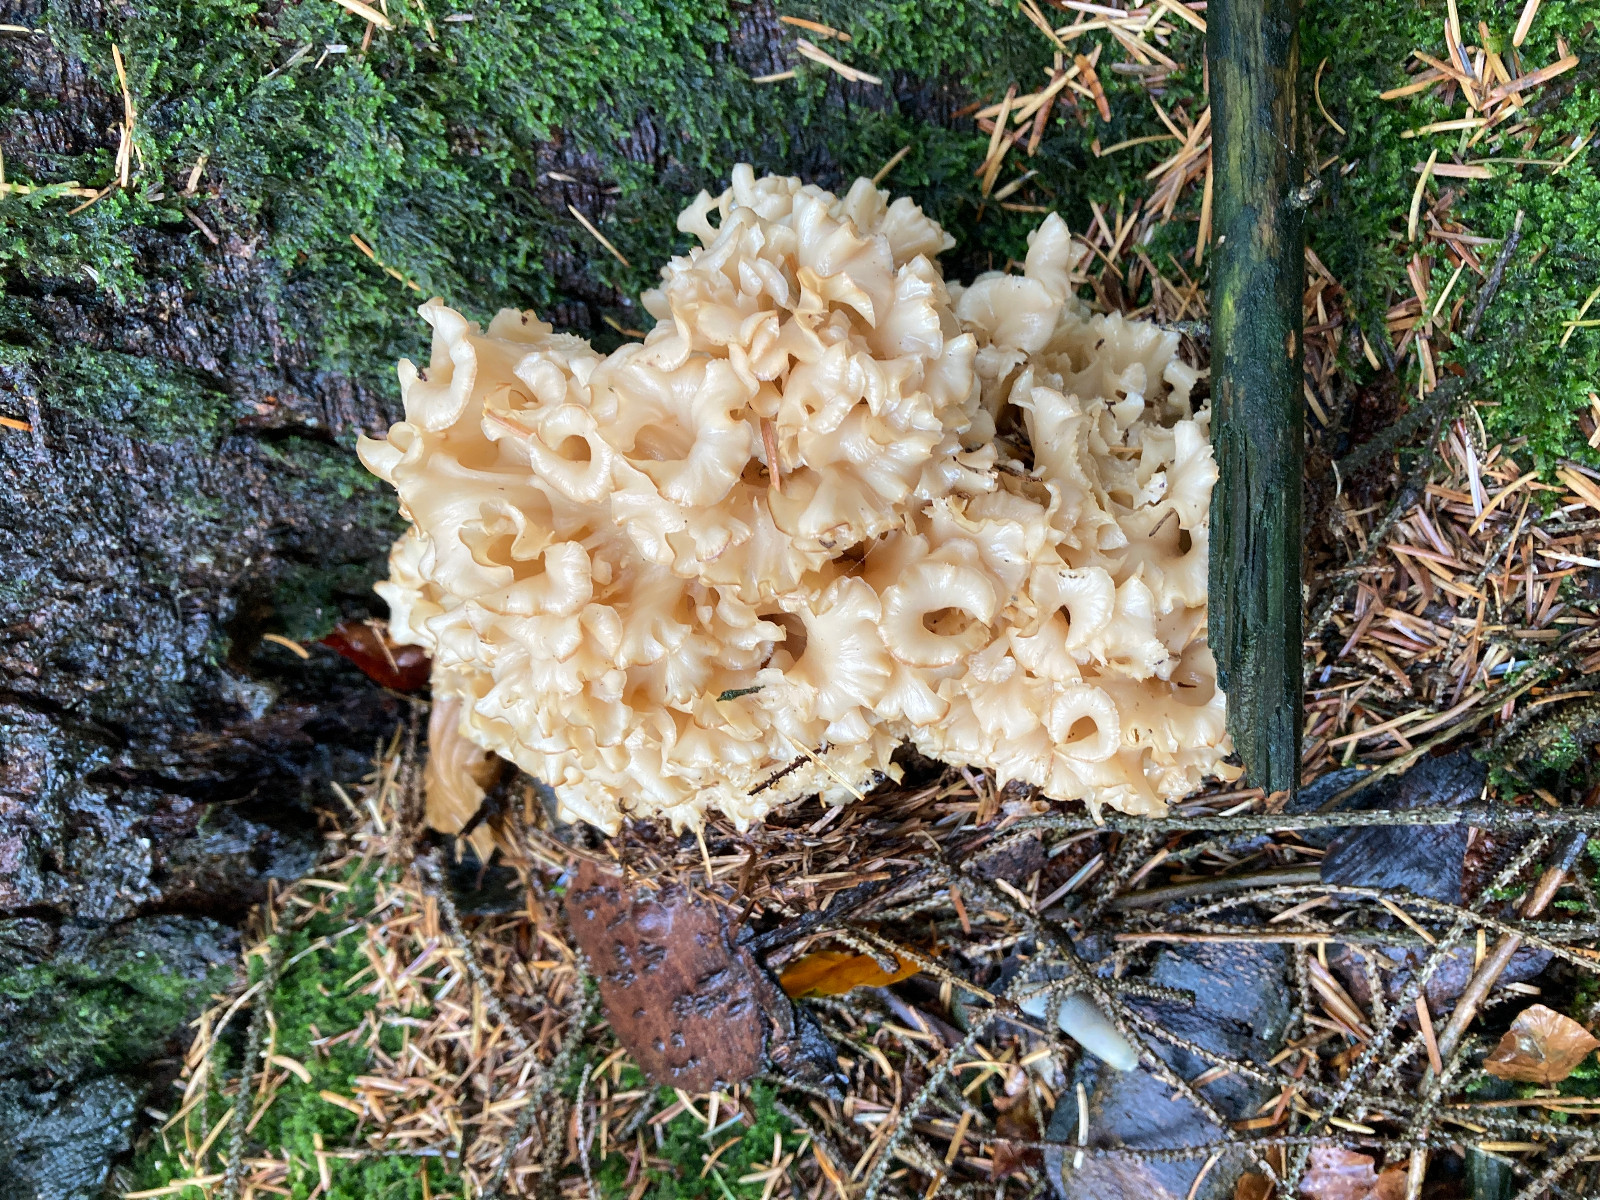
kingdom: Fungi
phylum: Basidiomycota
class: Agaricomycetes
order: Polyporales
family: Sparassidaceae
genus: Sparassis
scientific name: Sparassis crispa
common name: kruset blomkålssvamp
